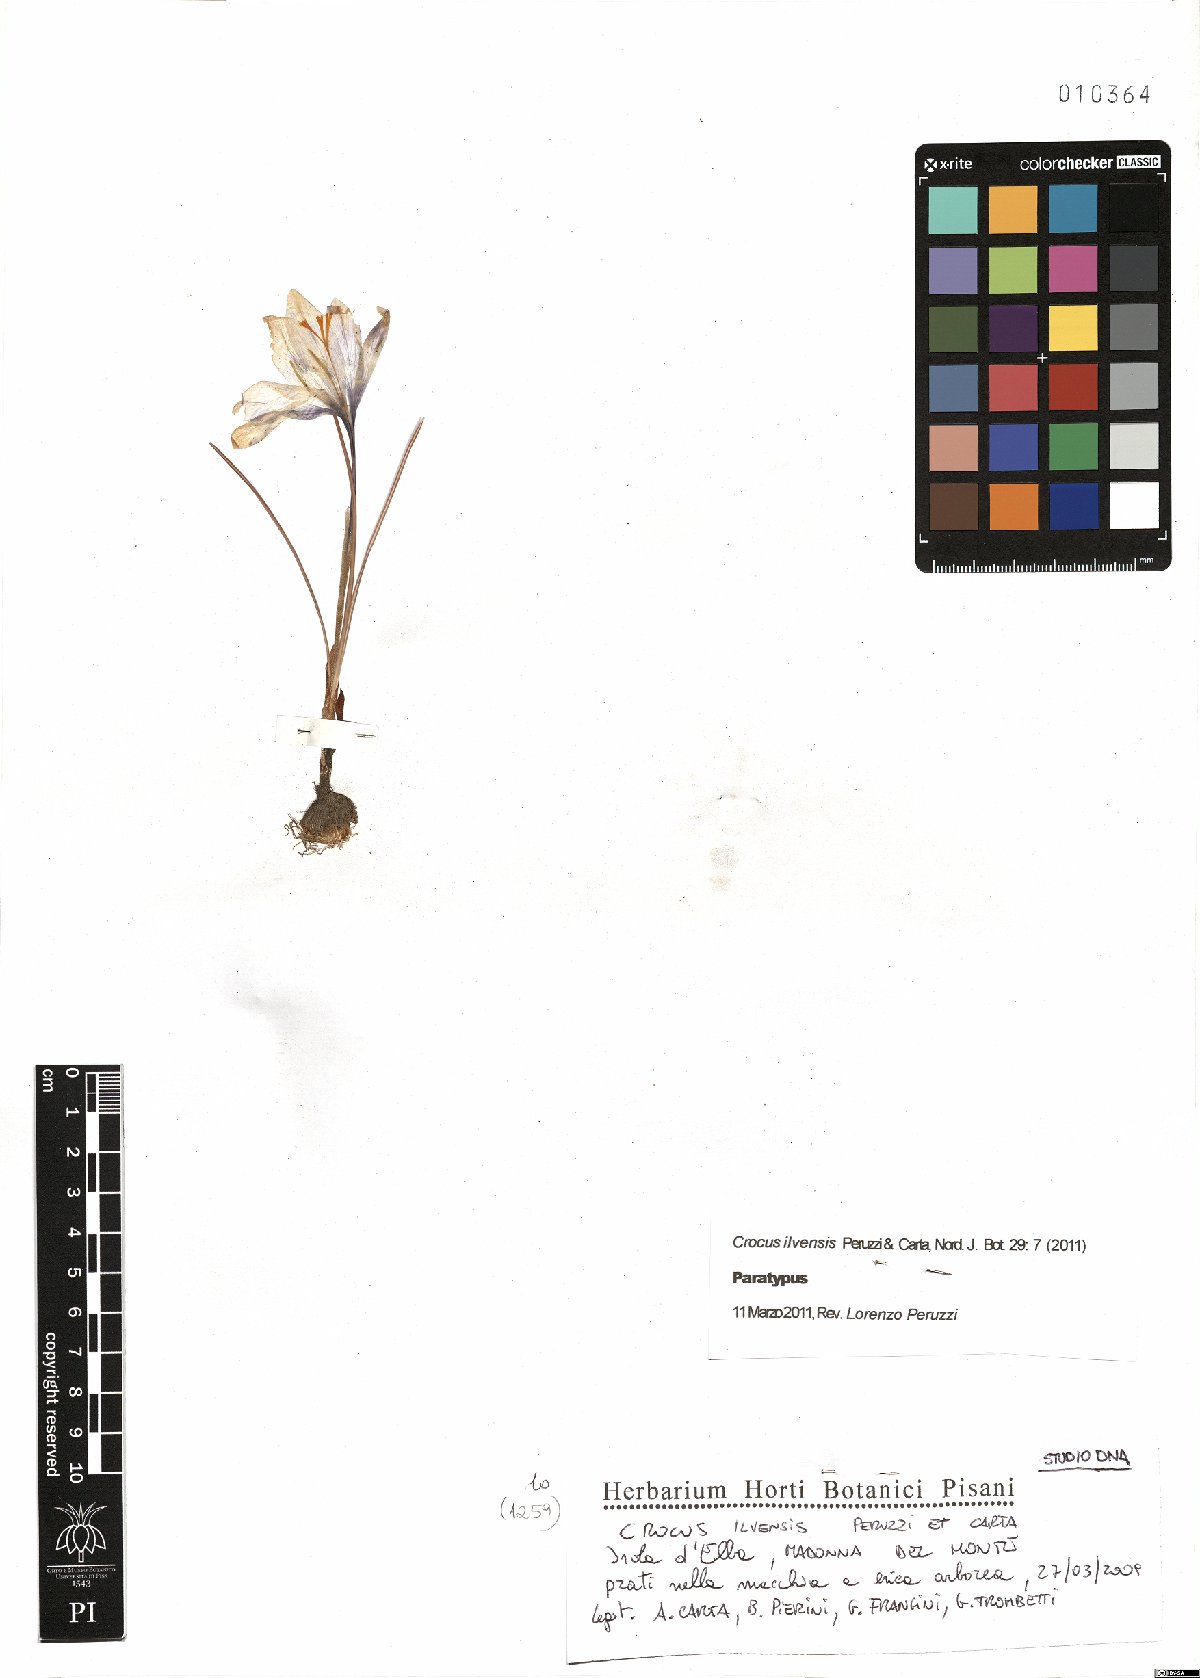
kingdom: Plantae
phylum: Tracheophyta
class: Liliopsida
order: Asparagales
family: Iridaceae
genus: Crocus
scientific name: Crocus ilvensis
